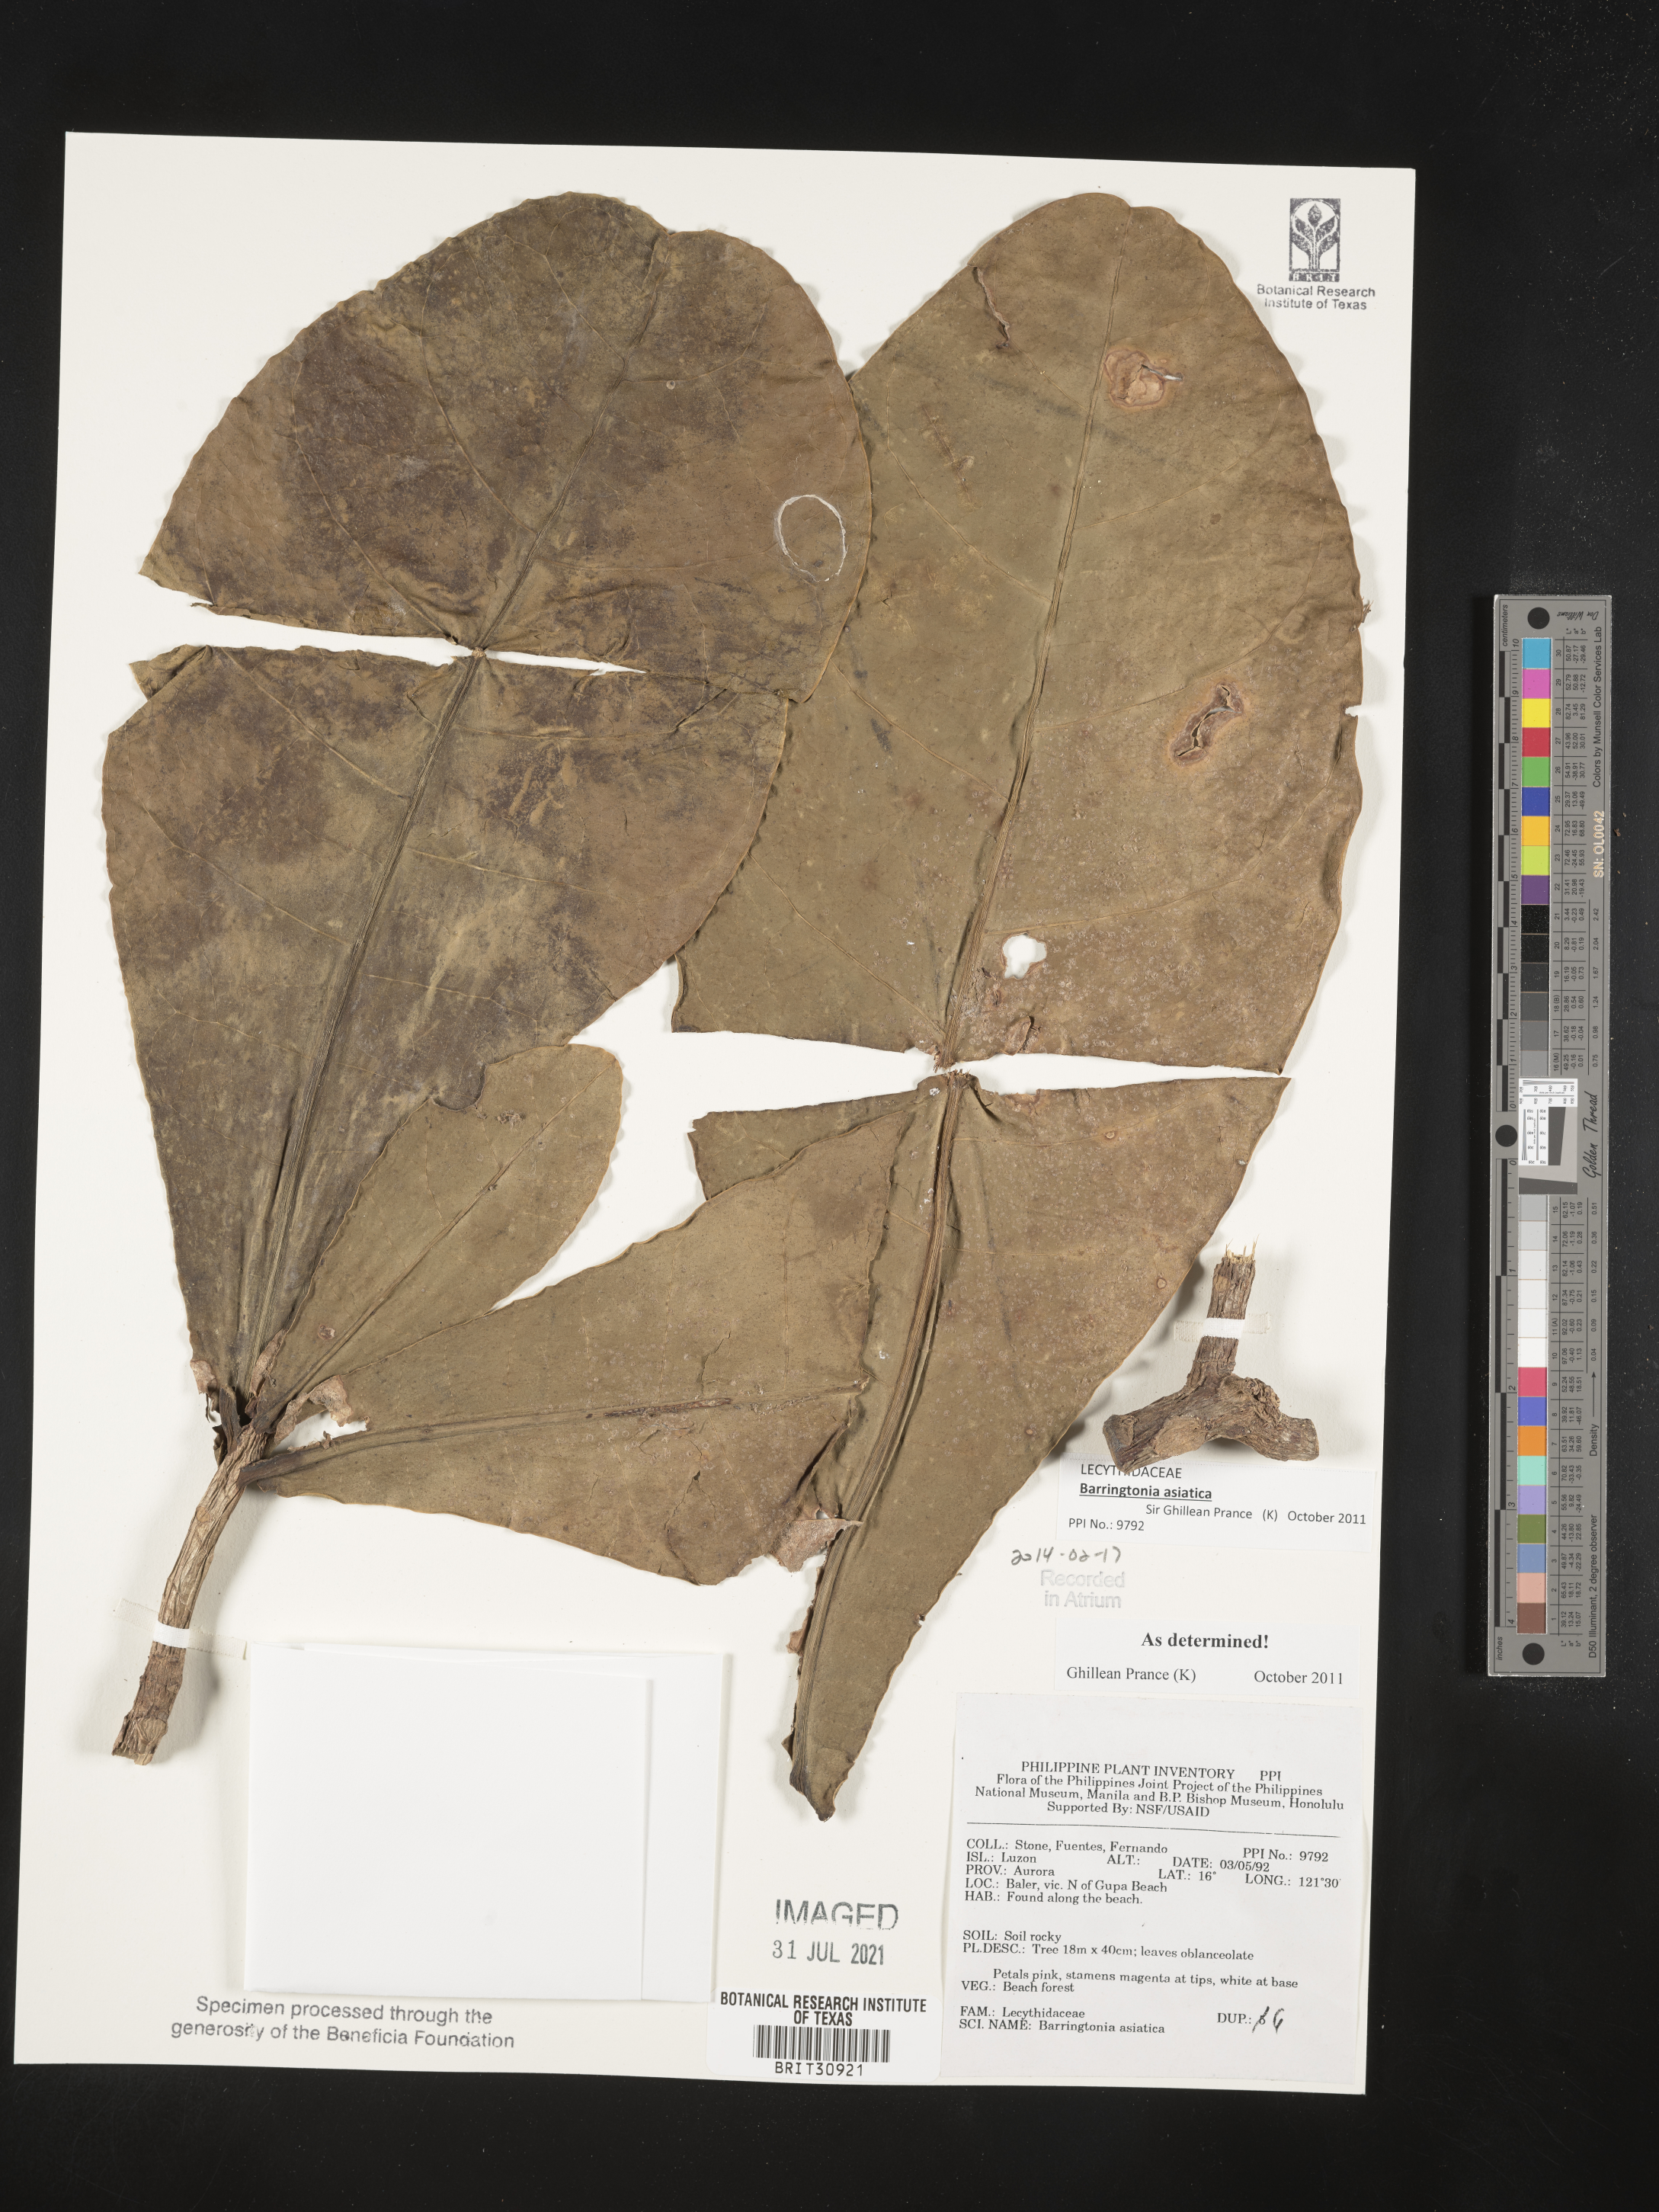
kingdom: Plantae
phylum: Tracheophyta
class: Magnoliopsida
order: Ericales
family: Lecythidaceae
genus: Barringtonia
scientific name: Barringtonia asiatica
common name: Mango-pine
